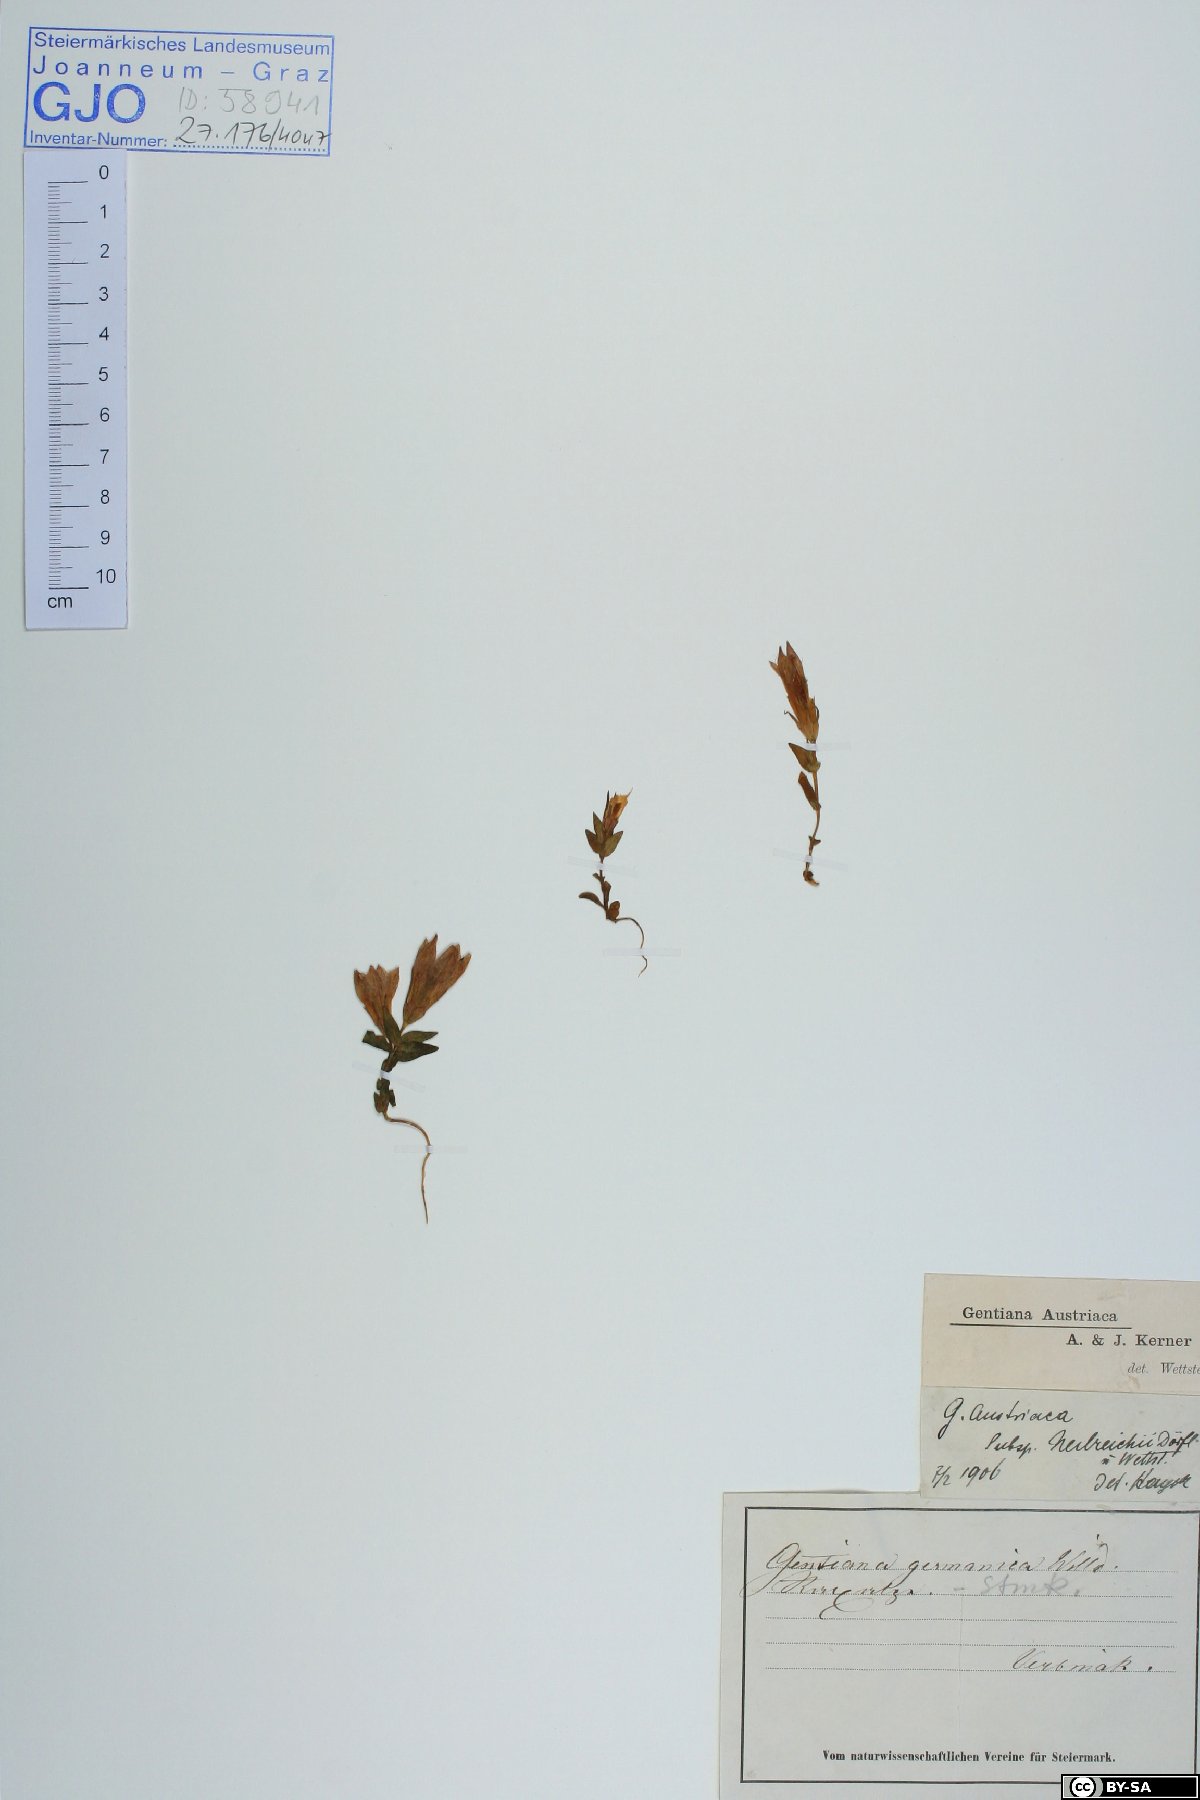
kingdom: Plantae
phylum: Tracheophyta
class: Magnoliopsida
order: Gentianales
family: Gentianaceae
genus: Gentianella
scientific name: Gentianella austriaca
